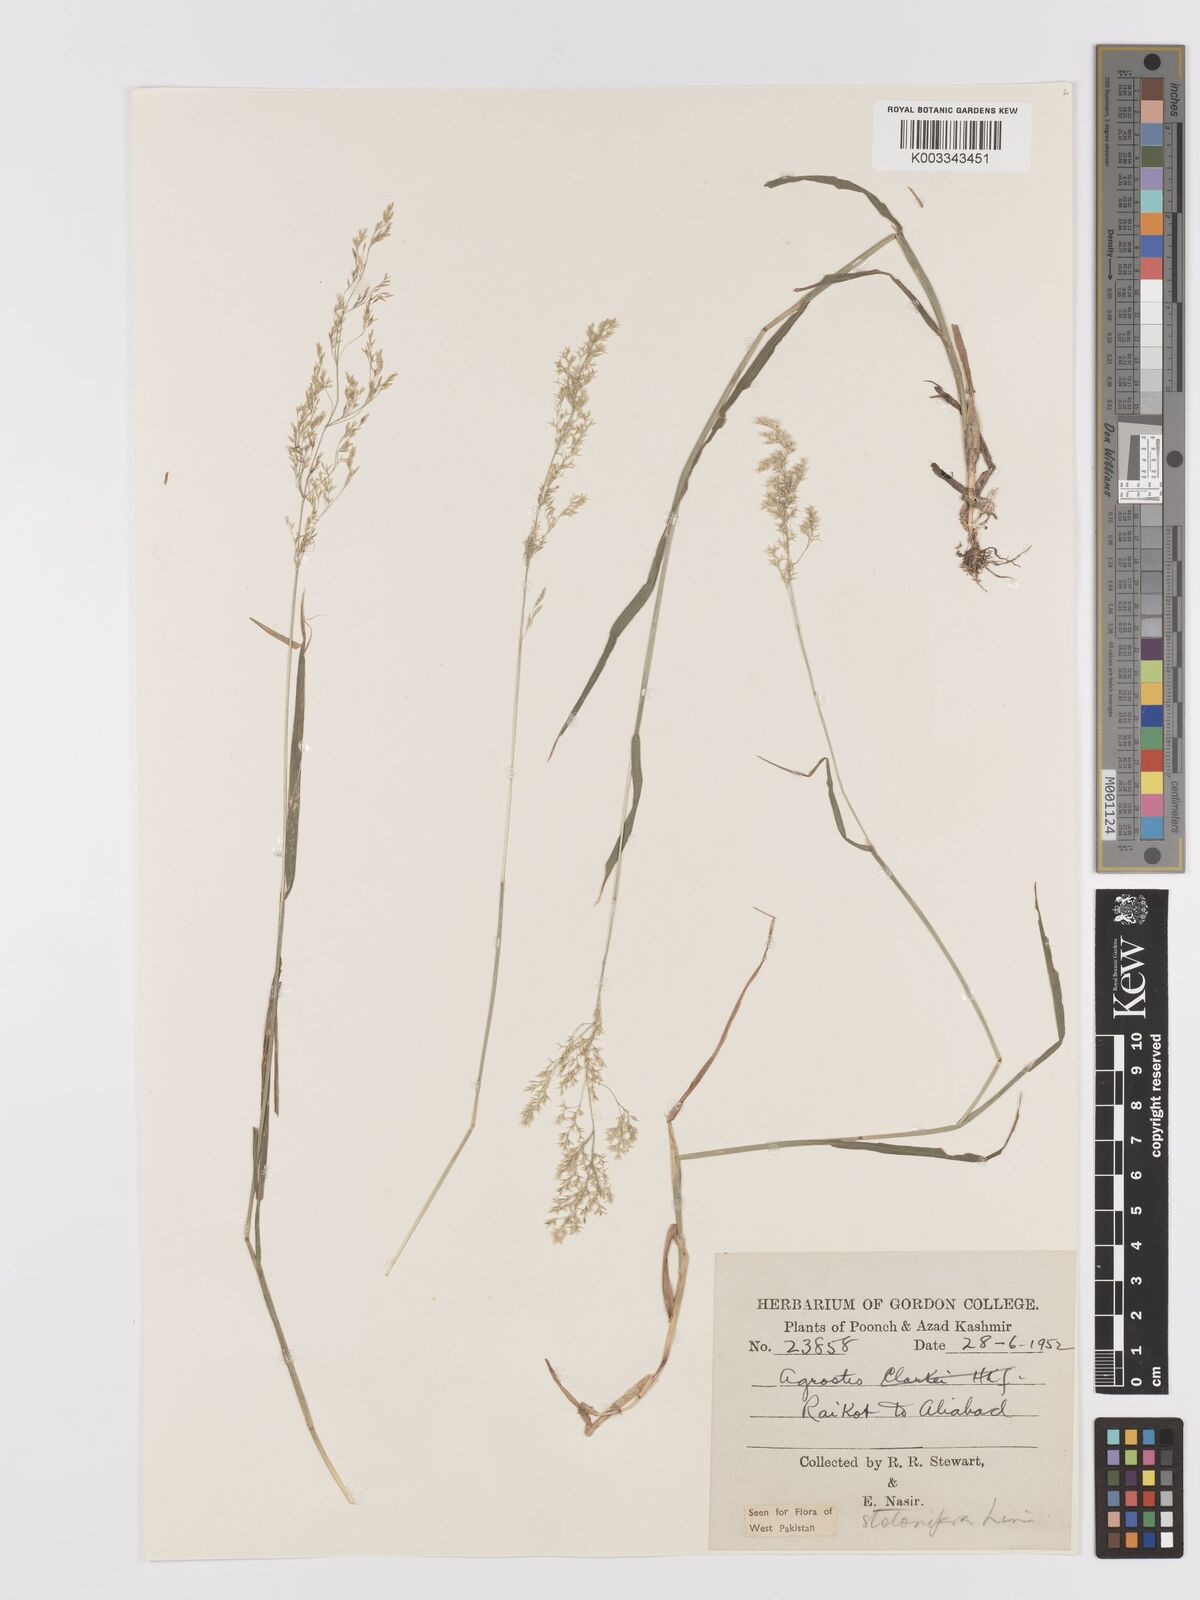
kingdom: Plantae
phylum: Tracheophyta
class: Liliopsida
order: Poales
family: Poaceae
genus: Agrostis
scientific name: Agrostis stolonifera
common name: Creeping bentgrass
